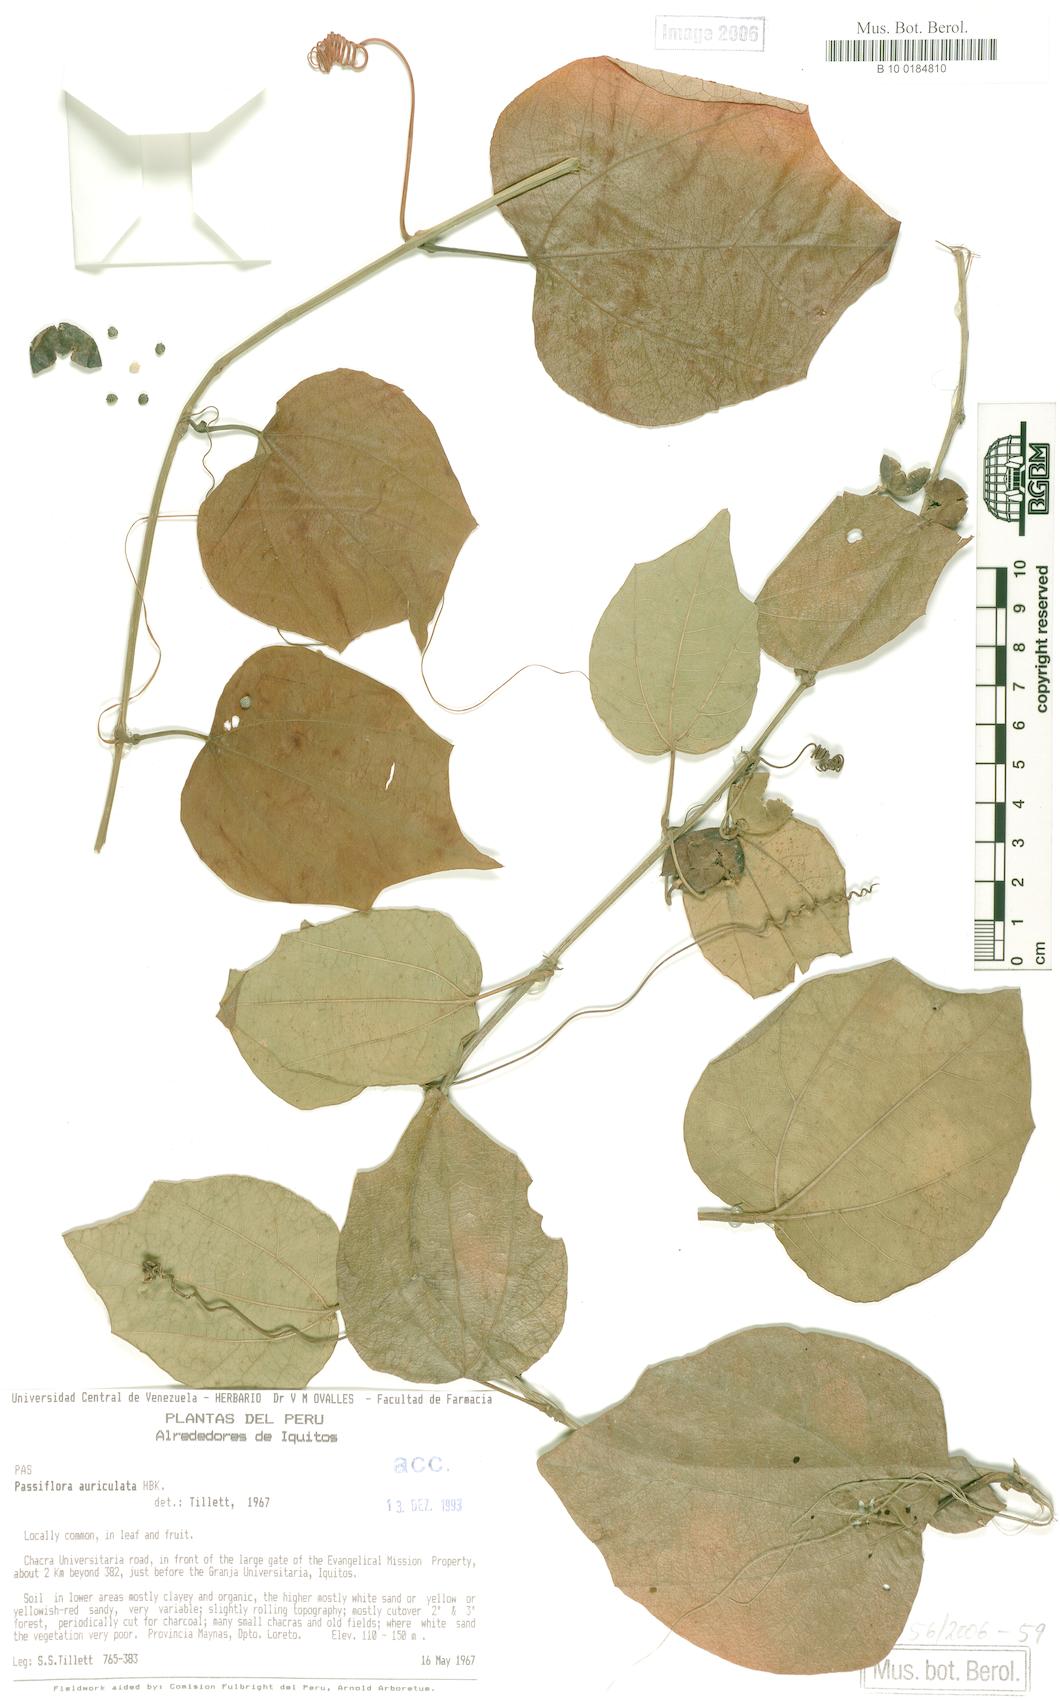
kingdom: Plantae
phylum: Tracheophyta
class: Magnoliopsida
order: Malpighiales
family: Passifloraceae
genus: Passiflora
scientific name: Passiflora auriculata
